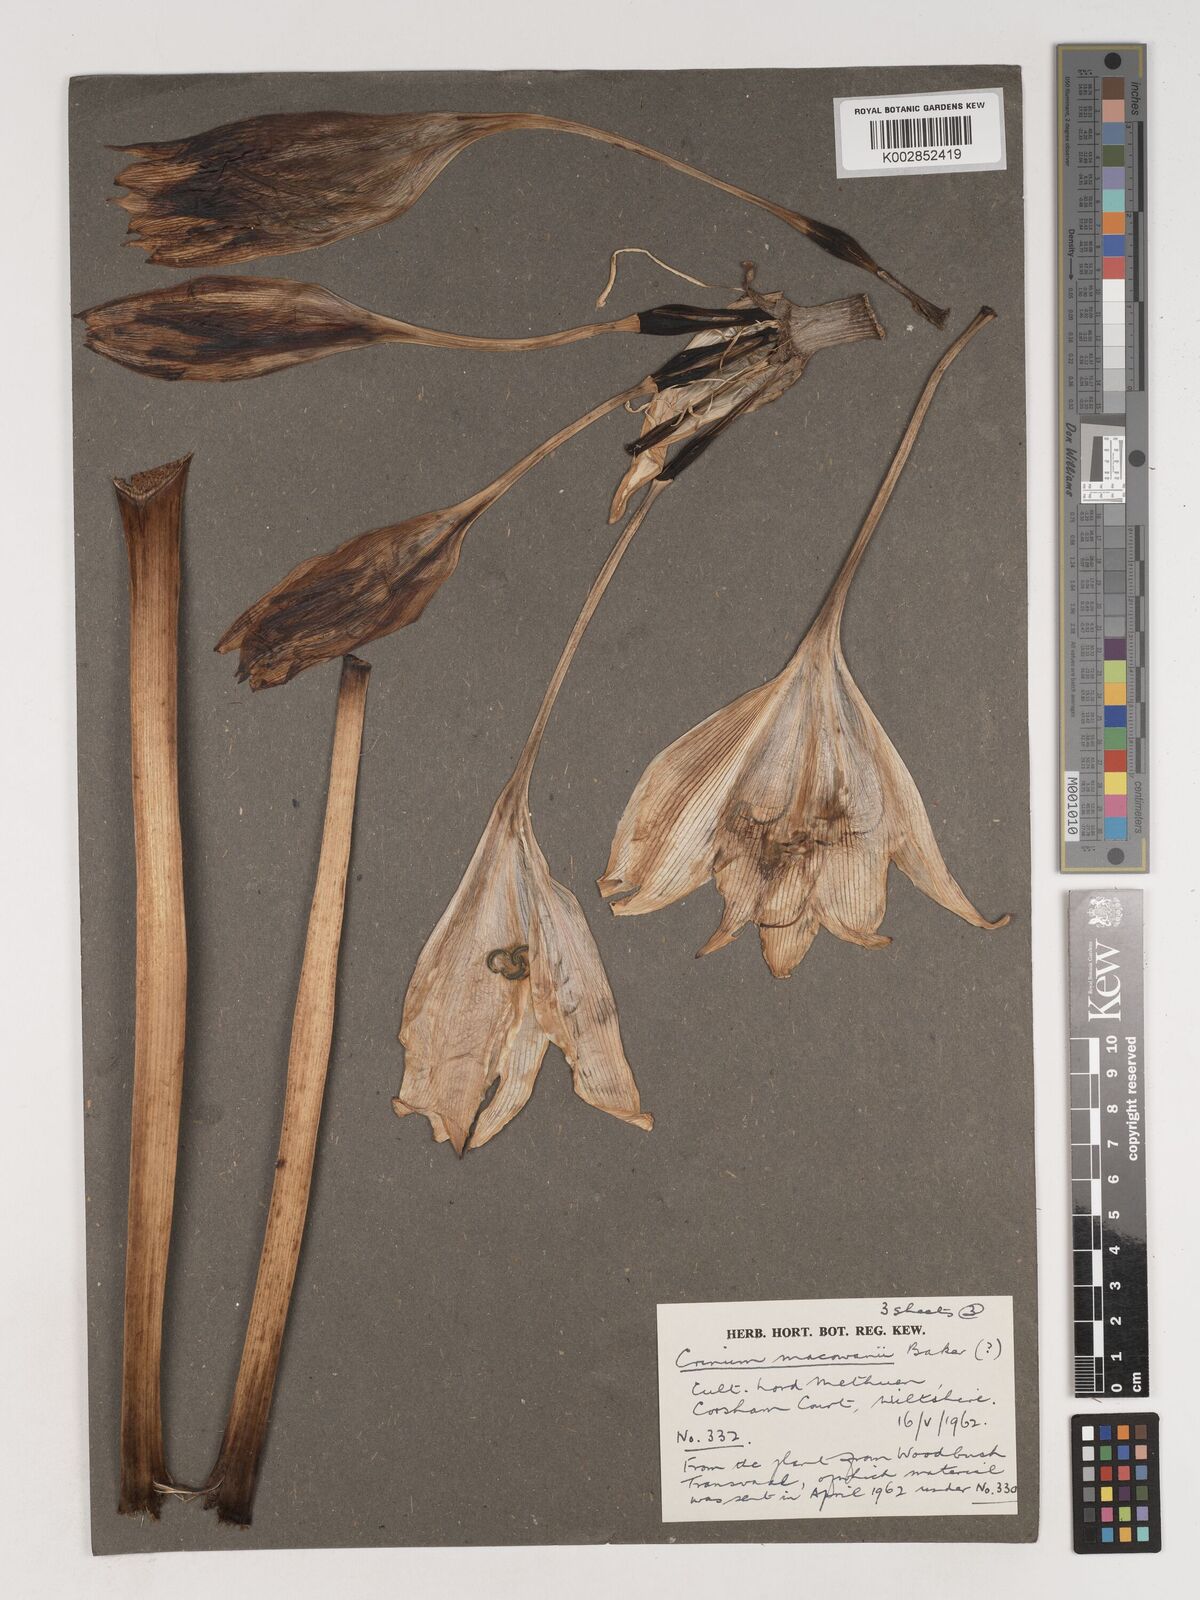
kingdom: Plantae
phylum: Tracheophyta
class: Liliopsida
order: Asparagales
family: Amaryllidaceae
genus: Crinum
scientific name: Crinum macowanii
